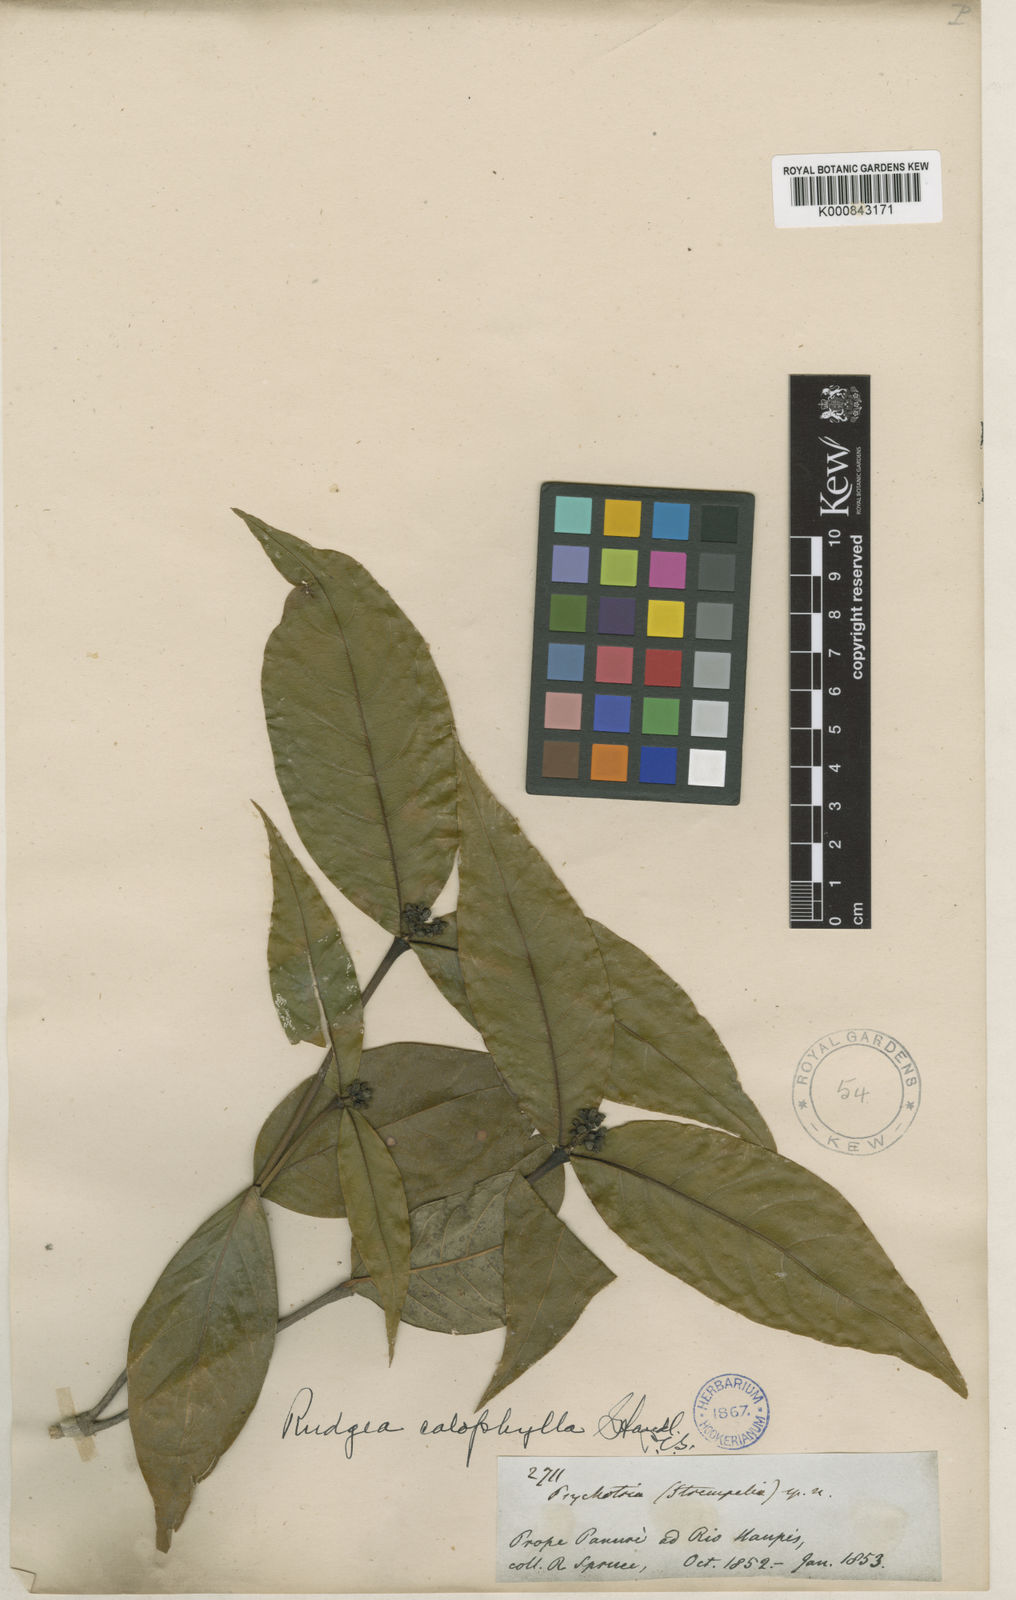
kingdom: Plantae
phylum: Tracheophyta
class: Magnoliopsida
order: Gentianales
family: Rubiaceae
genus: Rudgea
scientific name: Rudgea
